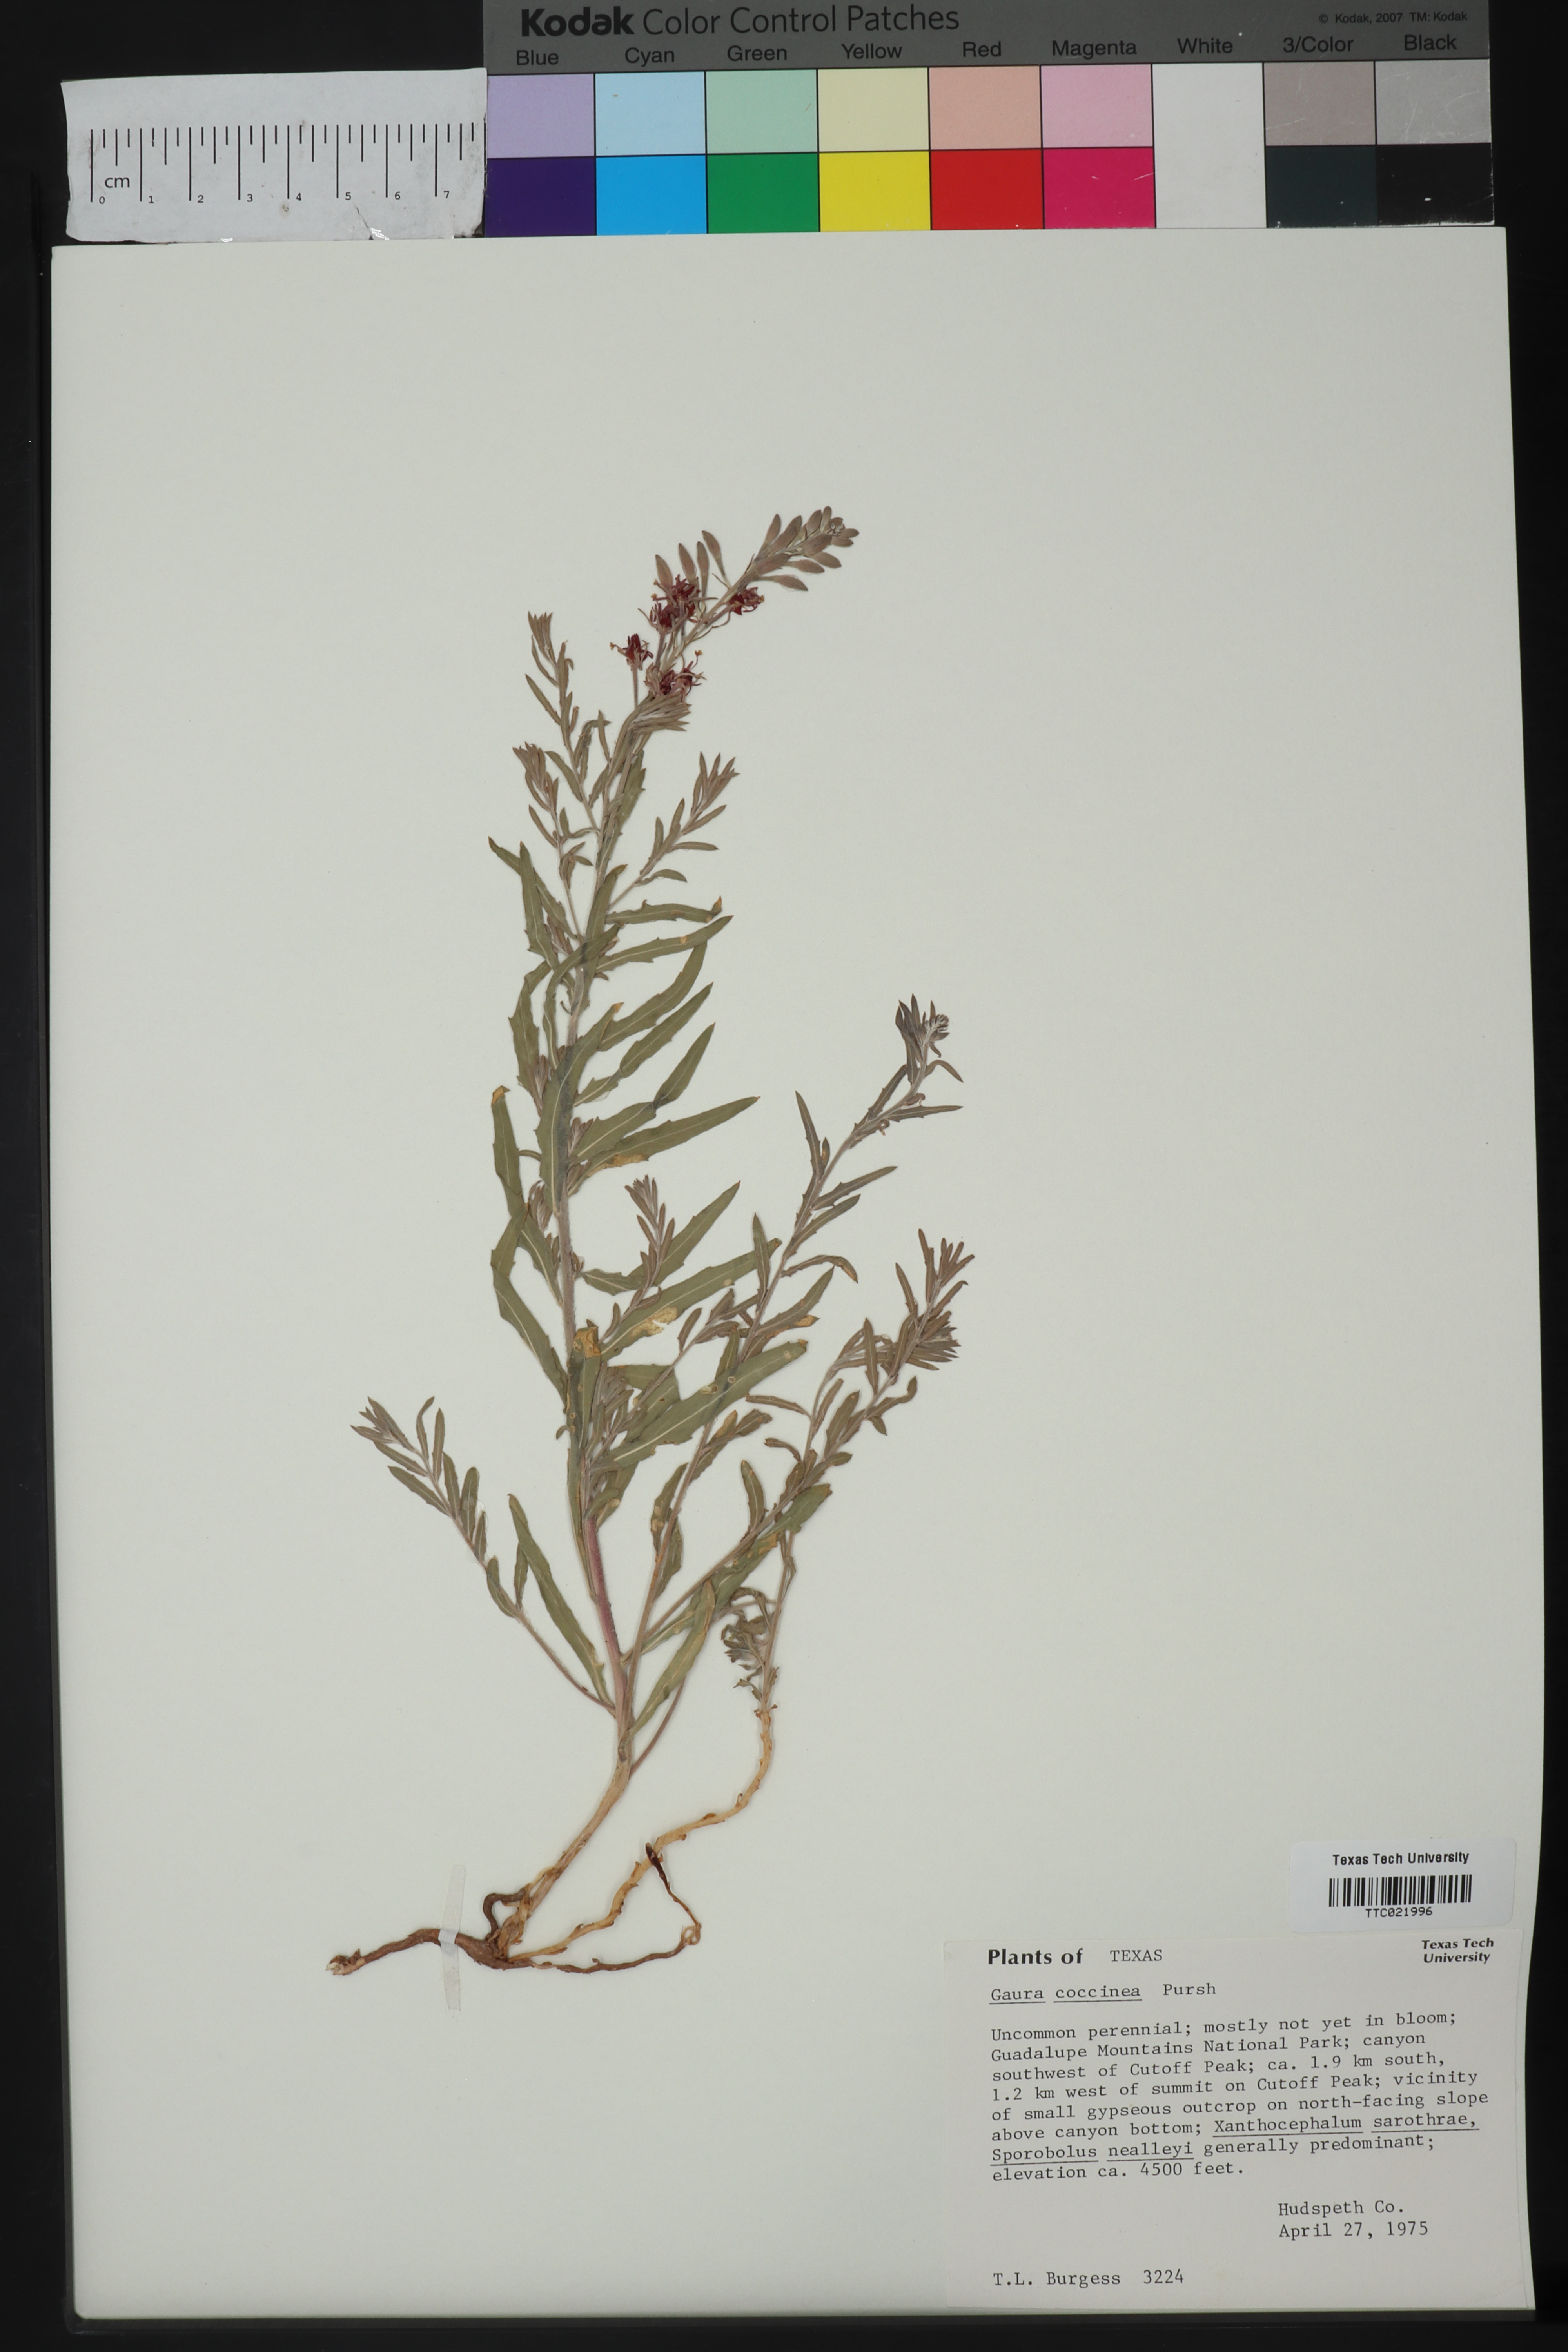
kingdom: Plantae
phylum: Tracheophyta
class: Magnoliopsida
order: Myrtales
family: Onagraceae
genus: Oenothera
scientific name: Oenothera suffrutescens
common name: Scarlet beeblossom
